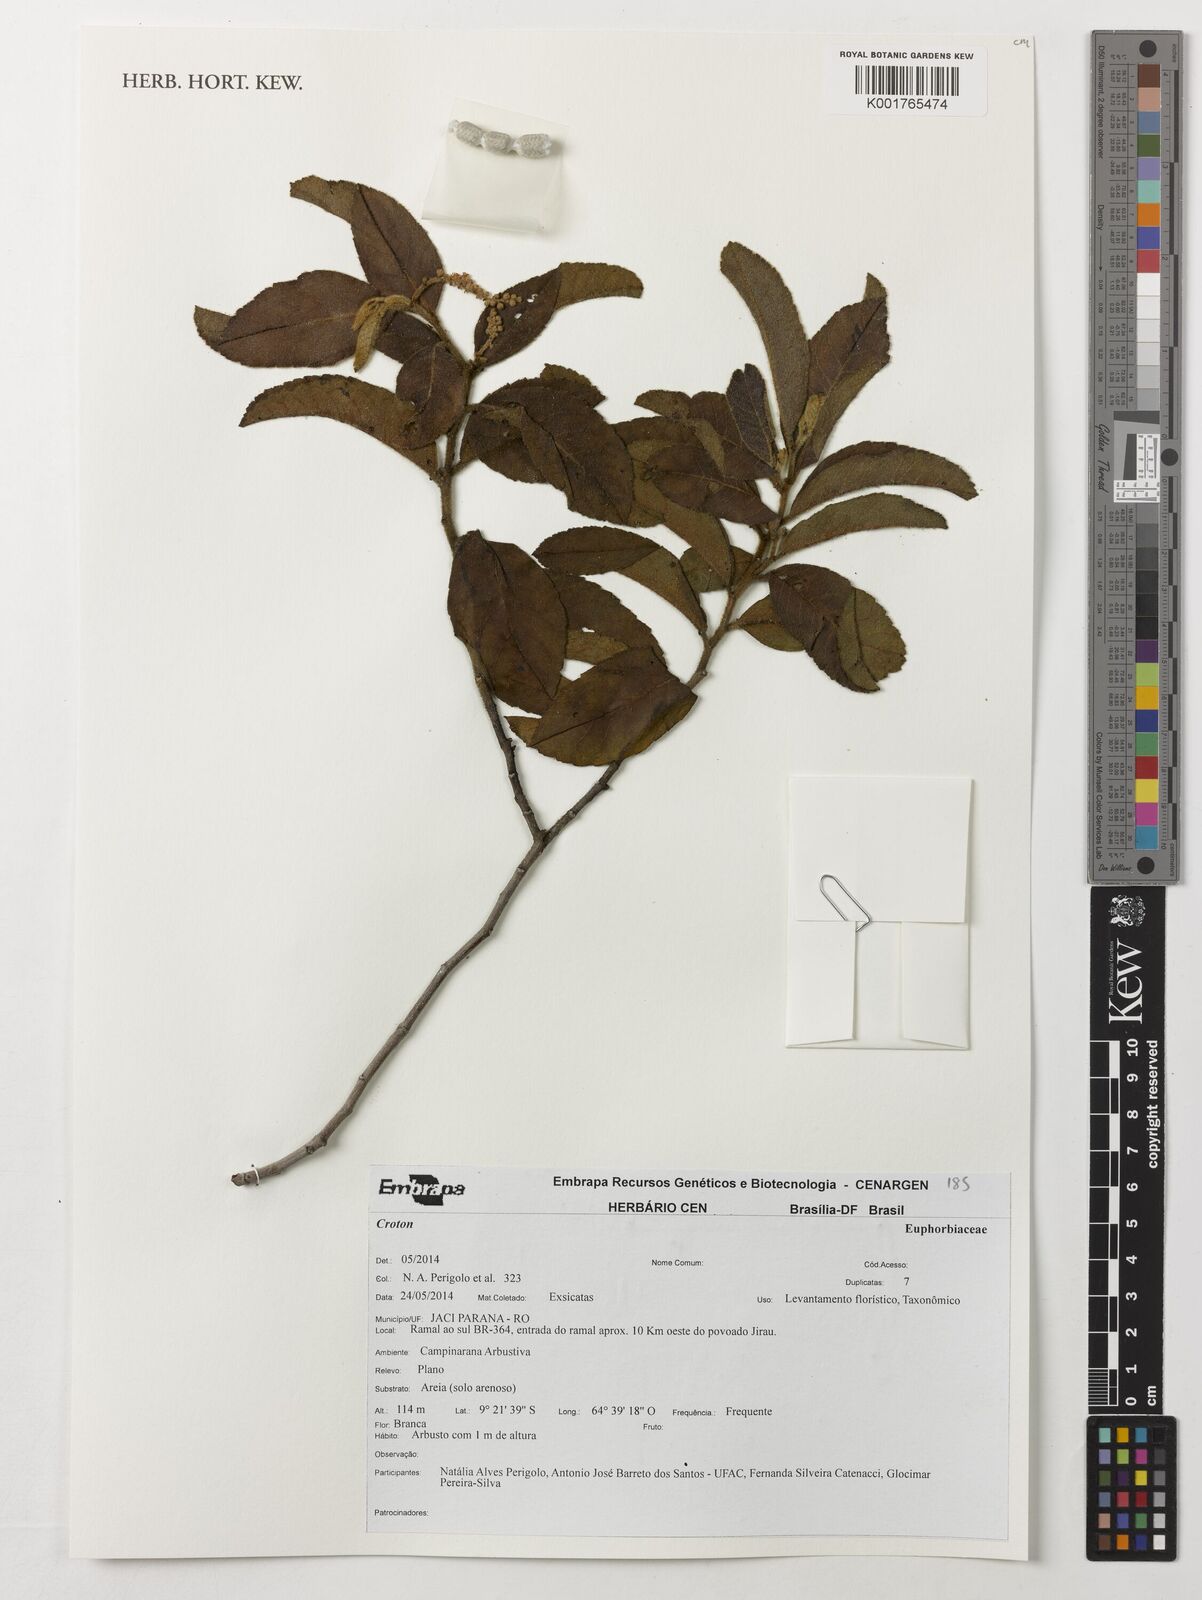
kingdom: Plantae
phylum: Tracheophyta
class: Magnoliopsida
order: Malpighiales
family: Euphorbiaceae
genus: Croton
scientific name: Croton
